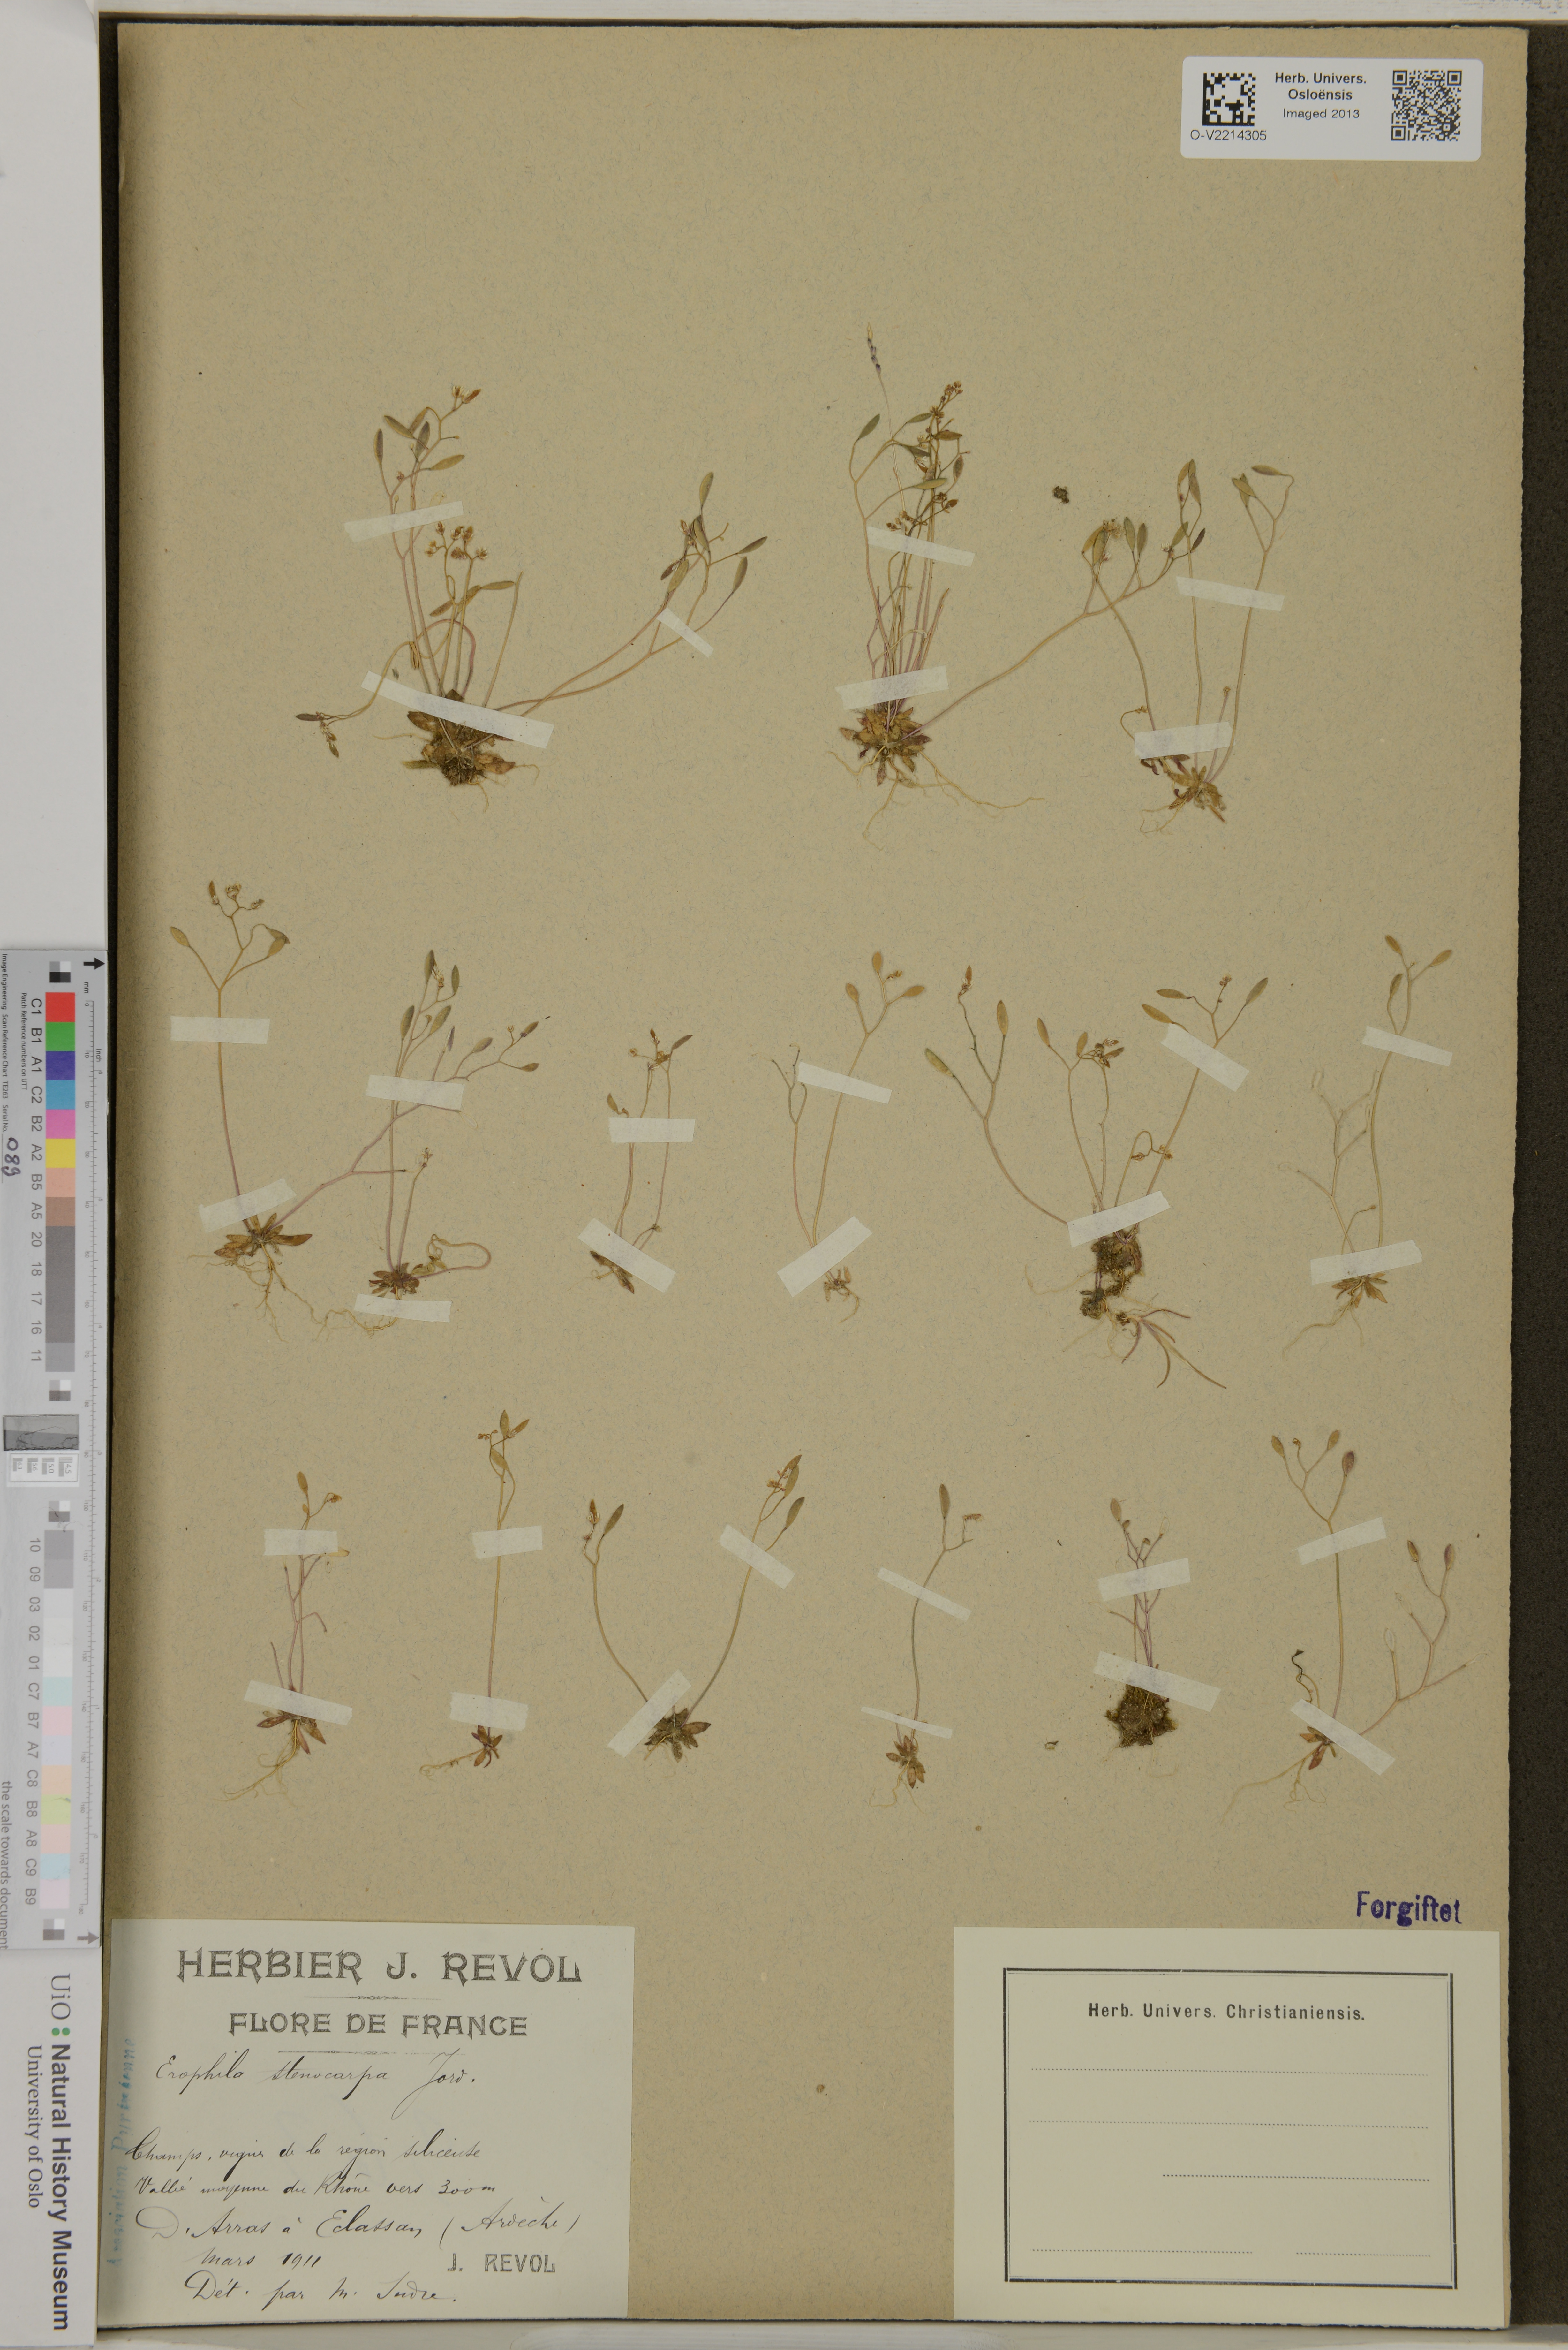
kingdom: Plantae
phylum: Tracheophyta
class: Magnoliopsida
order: Brassicales
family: Brassicaceae
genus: Draba
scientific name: Draba verna
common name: Spring draba
